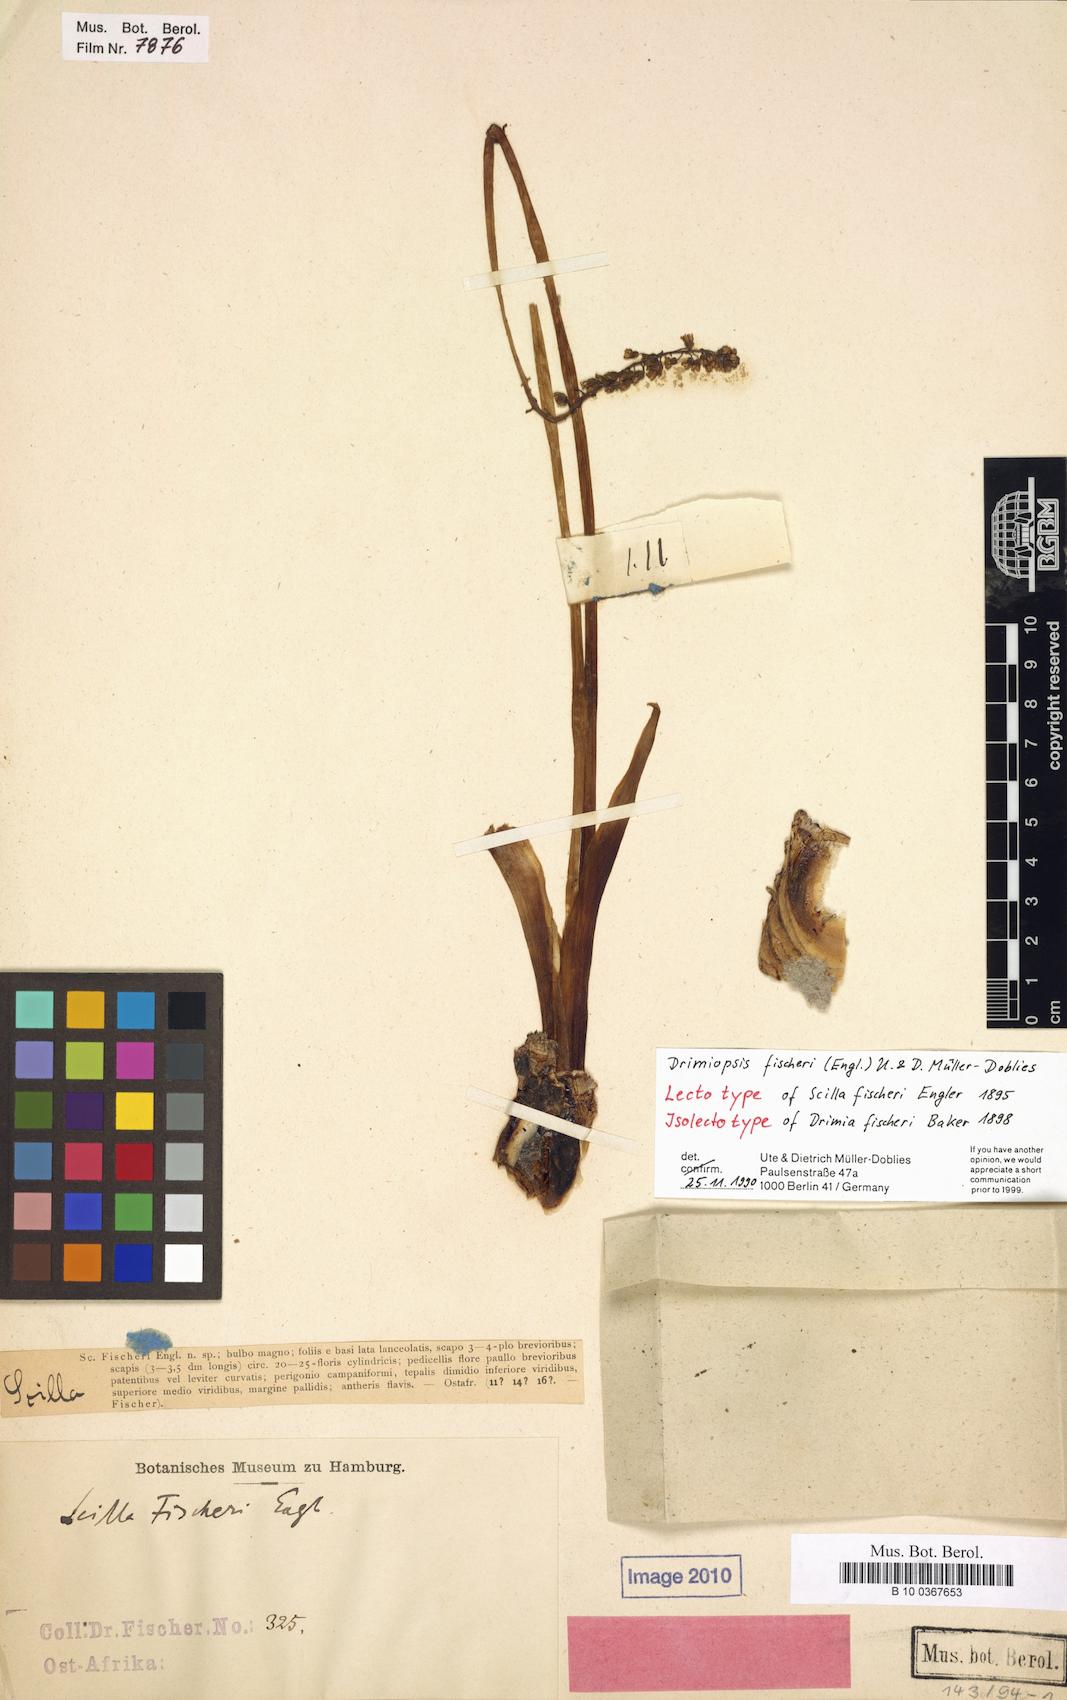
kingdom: Plantae
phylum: Tracheophyta
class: Liliopsida
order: Asparagales
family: Asparagaceae
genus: Drimiopsis
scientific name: Drimiopsis fischeri
